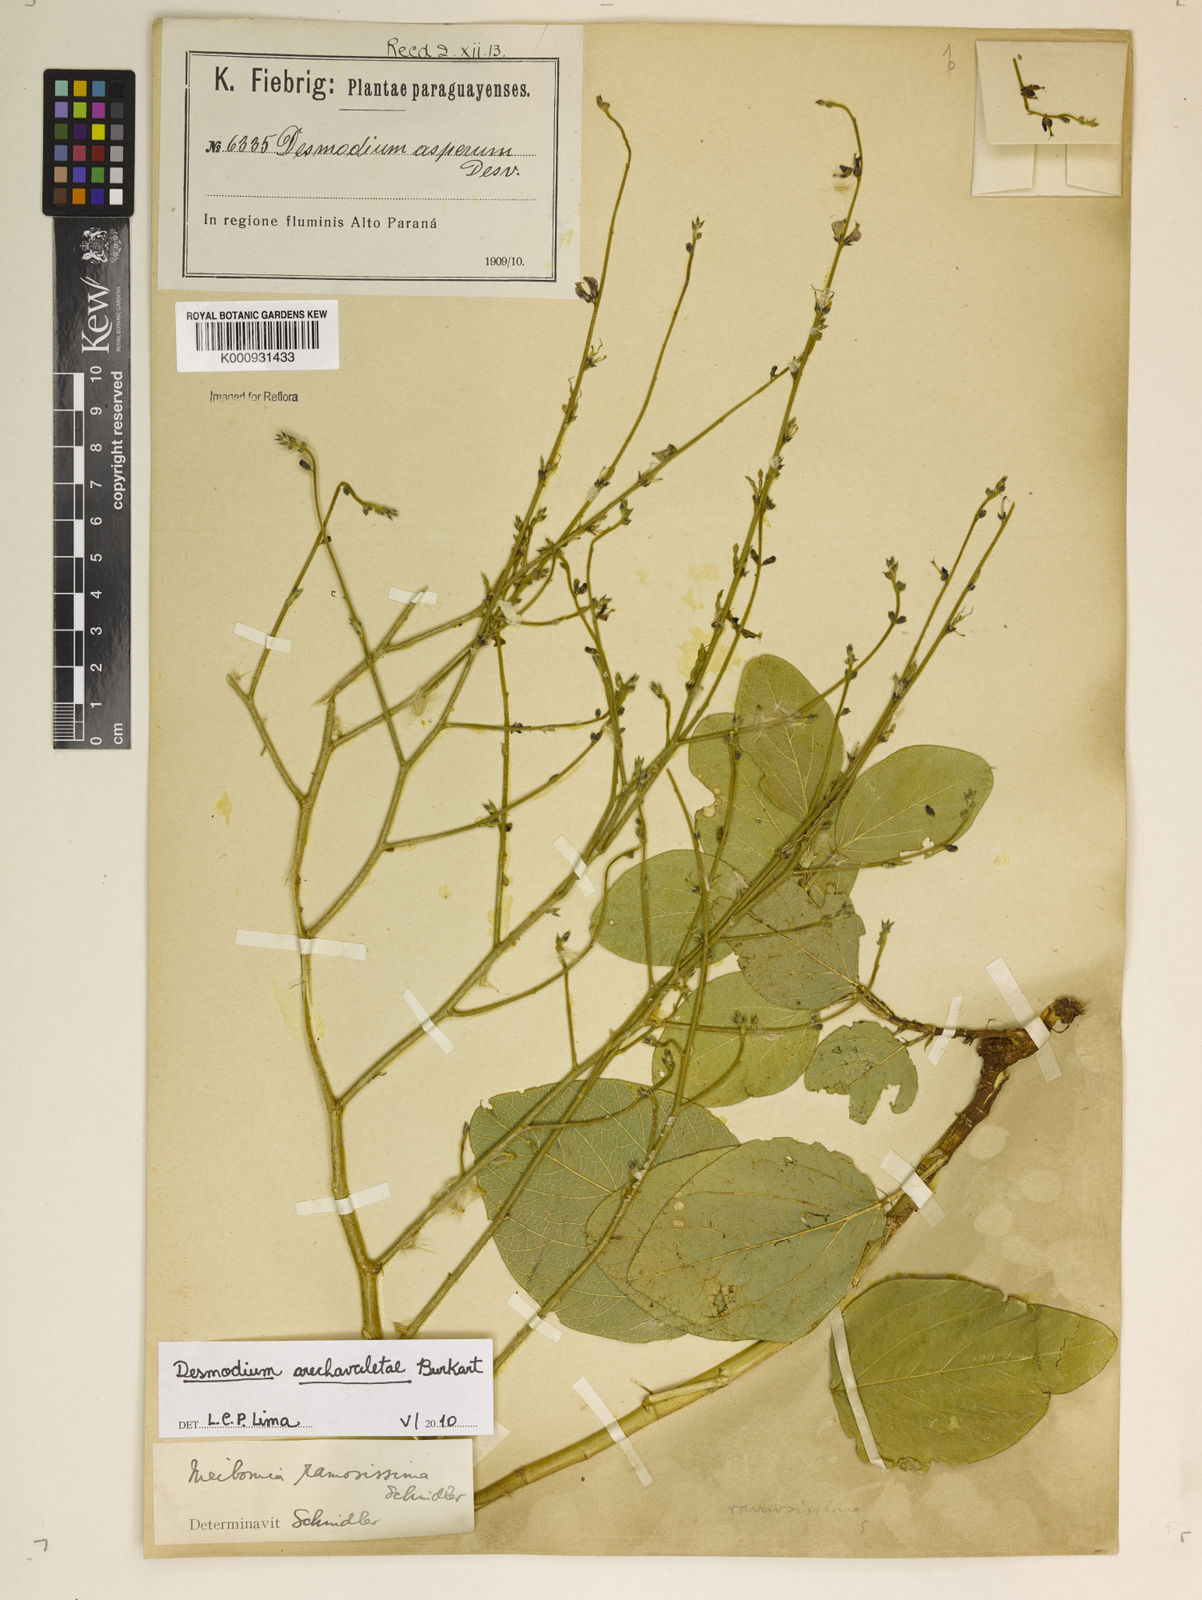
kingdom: Plantae
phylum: Tracheophyta
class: Magnoliopsida
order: Fabales
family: Fabaceae
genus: Desmodium
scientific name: Desmodium arechavaletae
